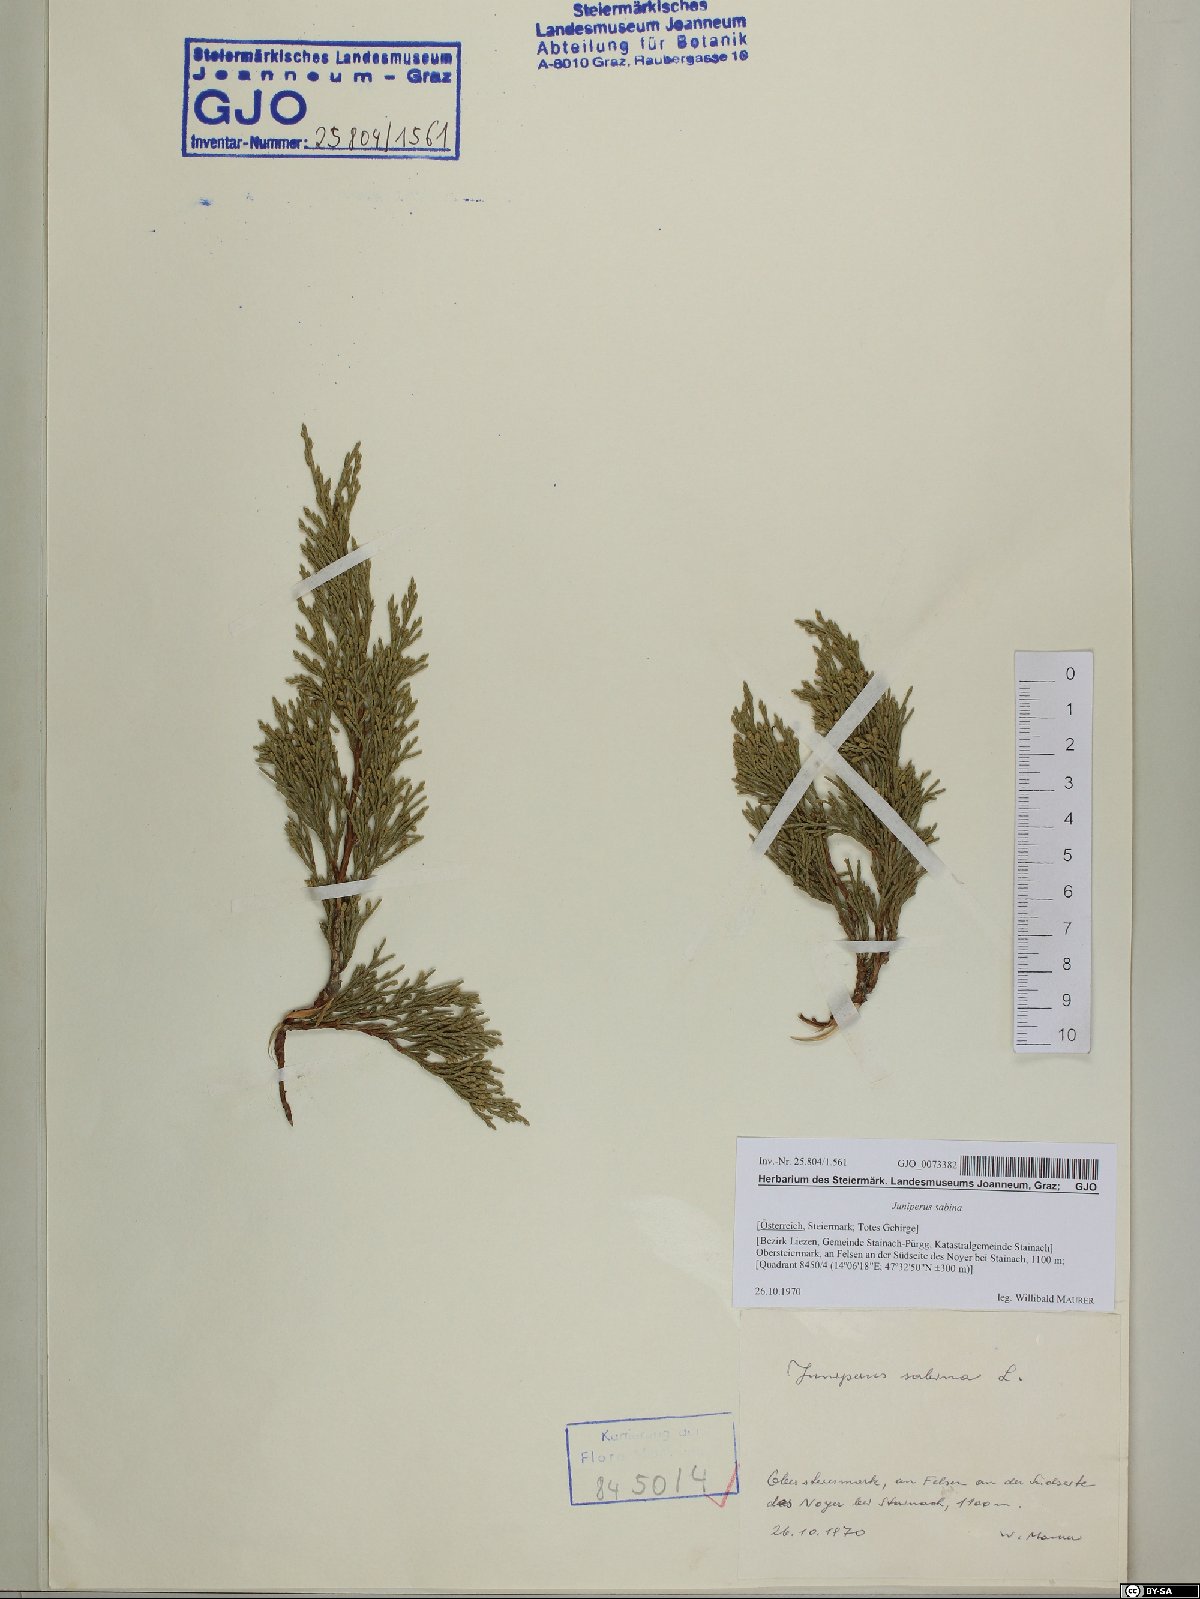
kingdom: Plantae
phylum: Tracheophyta
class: Pinopsida
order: Pinales
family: Cupressaceae
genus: Juniperus
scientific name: Juniperus sabina
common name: Savin
